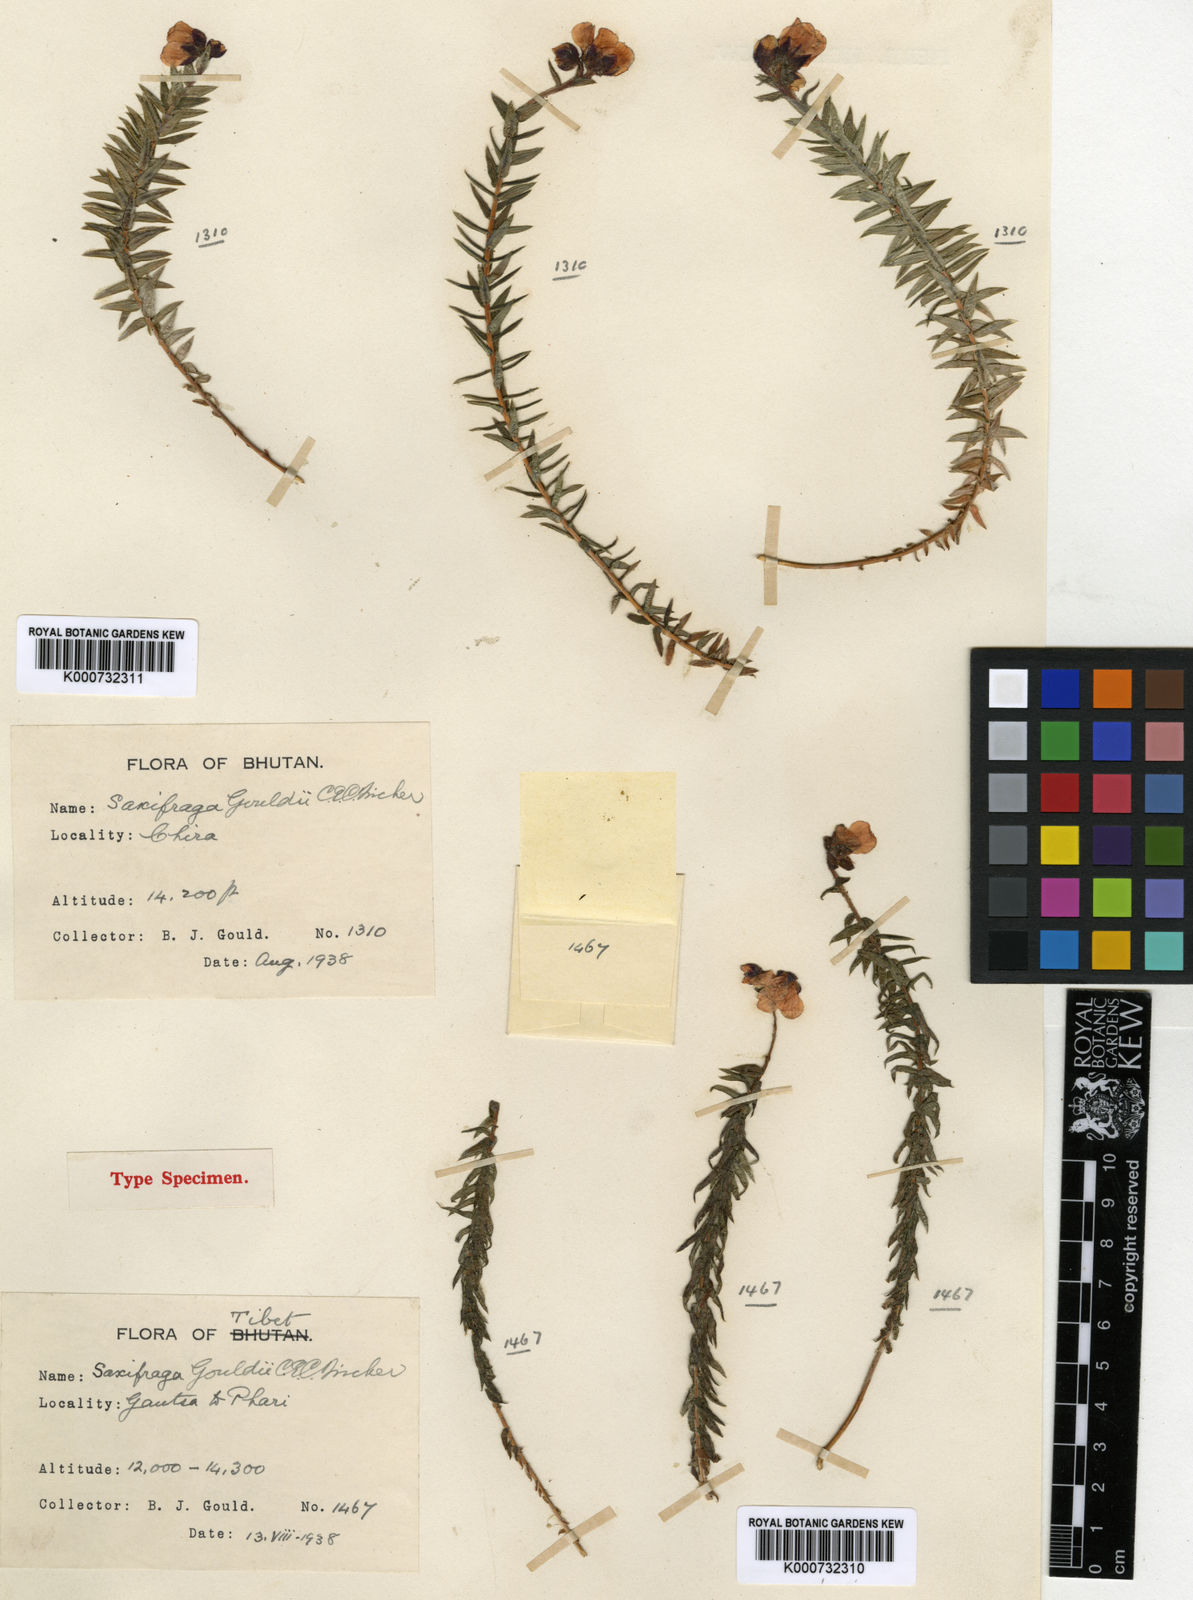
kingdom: Plantae
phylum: Tracheophyta
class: Magnoliopsida
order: Saxifragales
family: Saxifragaceae
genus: Saxifraga
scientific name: Saxifraga gouldii
